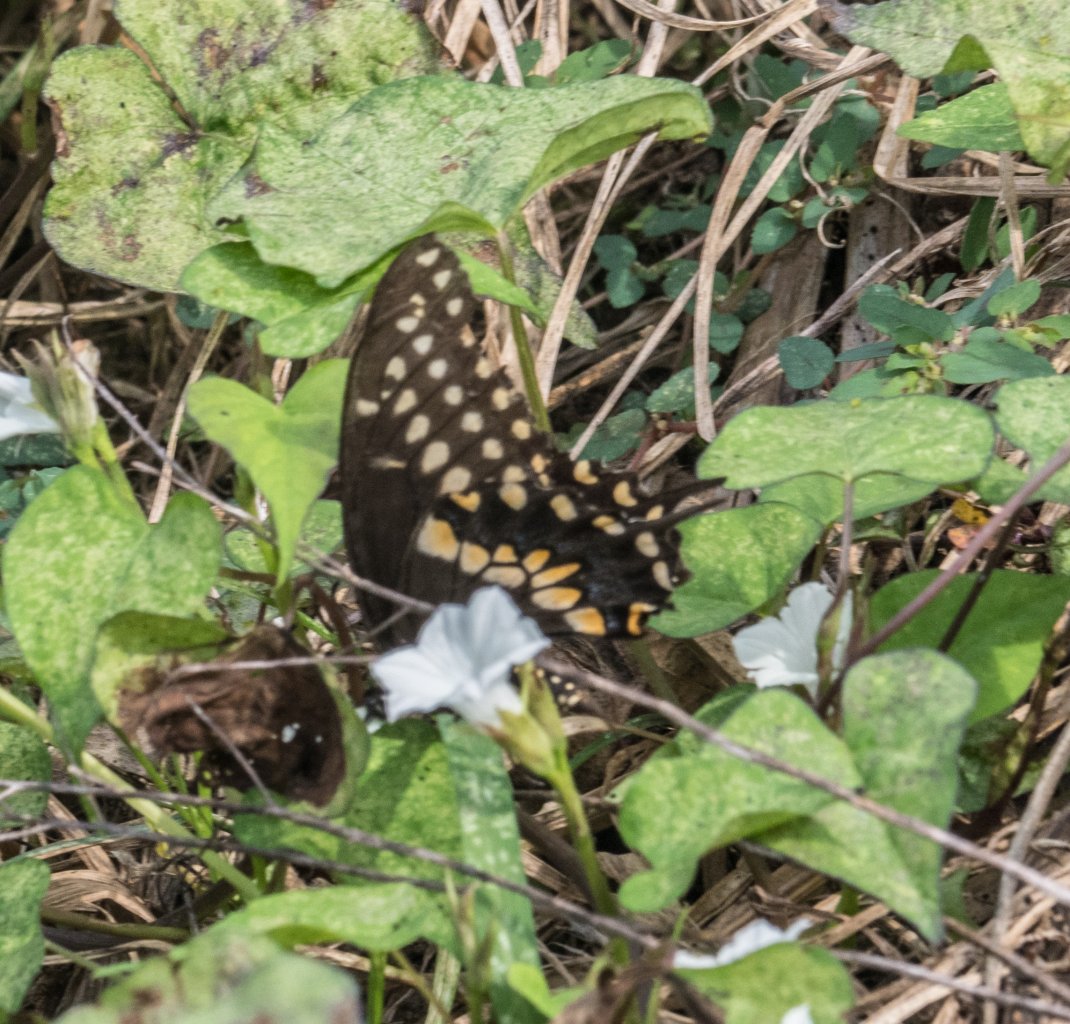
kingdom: Animalia
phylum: Arthropoda
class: Insecta
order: Lepidoptera
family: Papilionidae
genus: Papilio
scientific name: Papilio polyxenes
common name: Black Swallowtail
